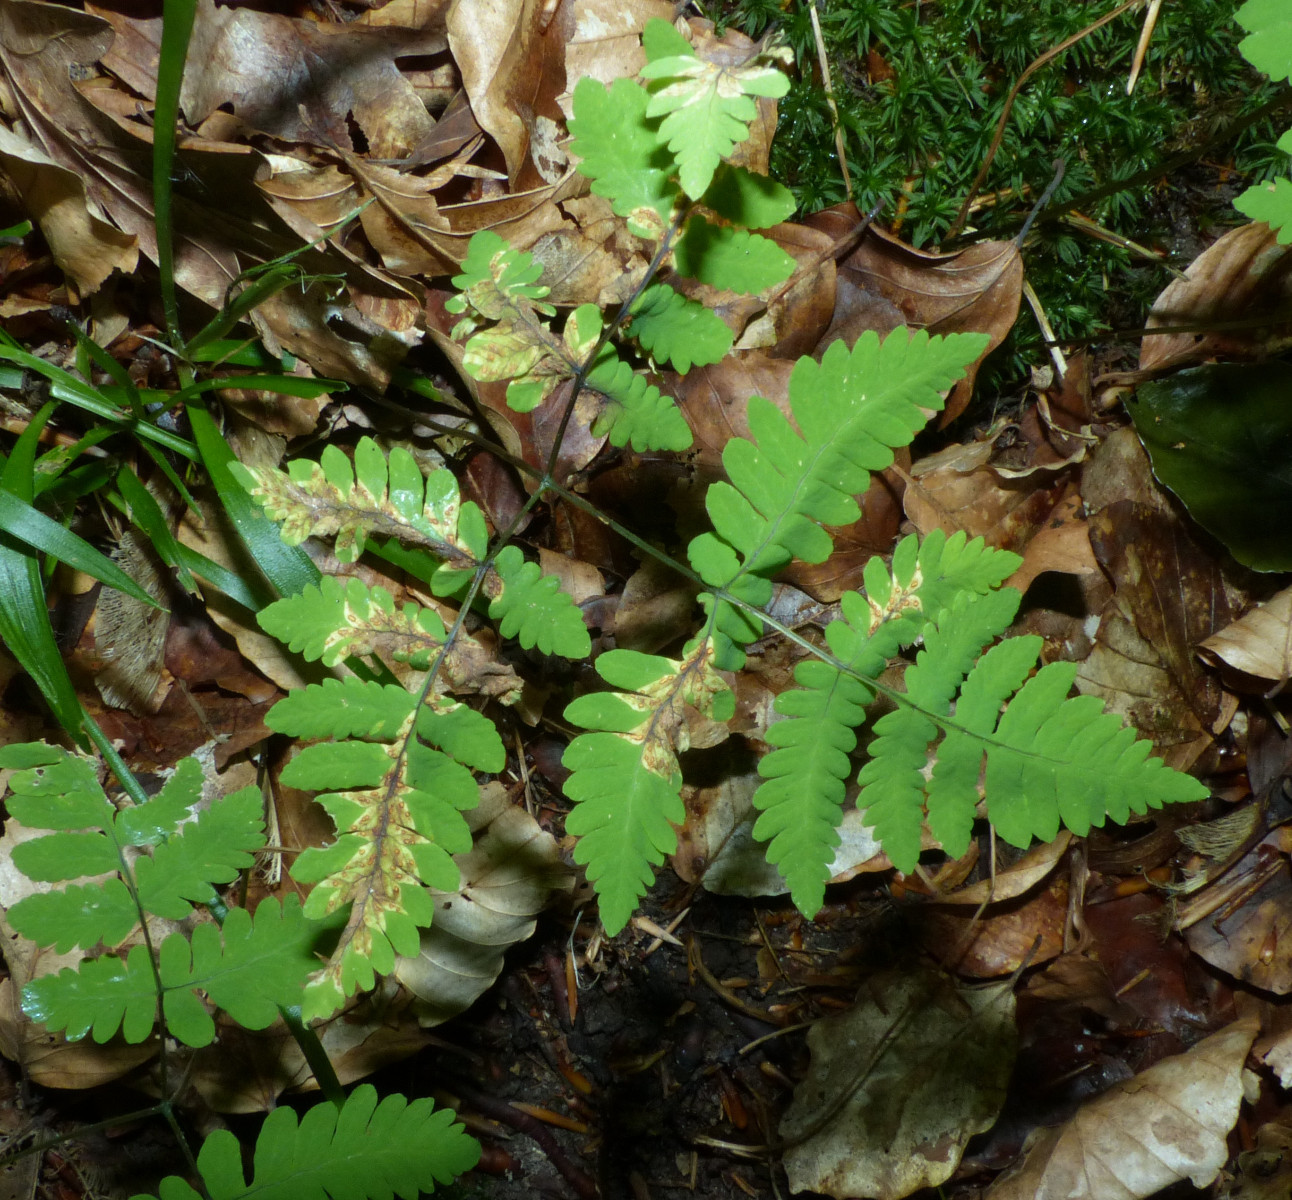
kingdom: Fungi
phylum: Basidiomycota
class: Pucciniomycetes
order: Pucciniales
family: Pucciniastraceae
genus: Hyalopsora
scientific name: Hyalopsora aspidiotus
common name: Oak fern rust
